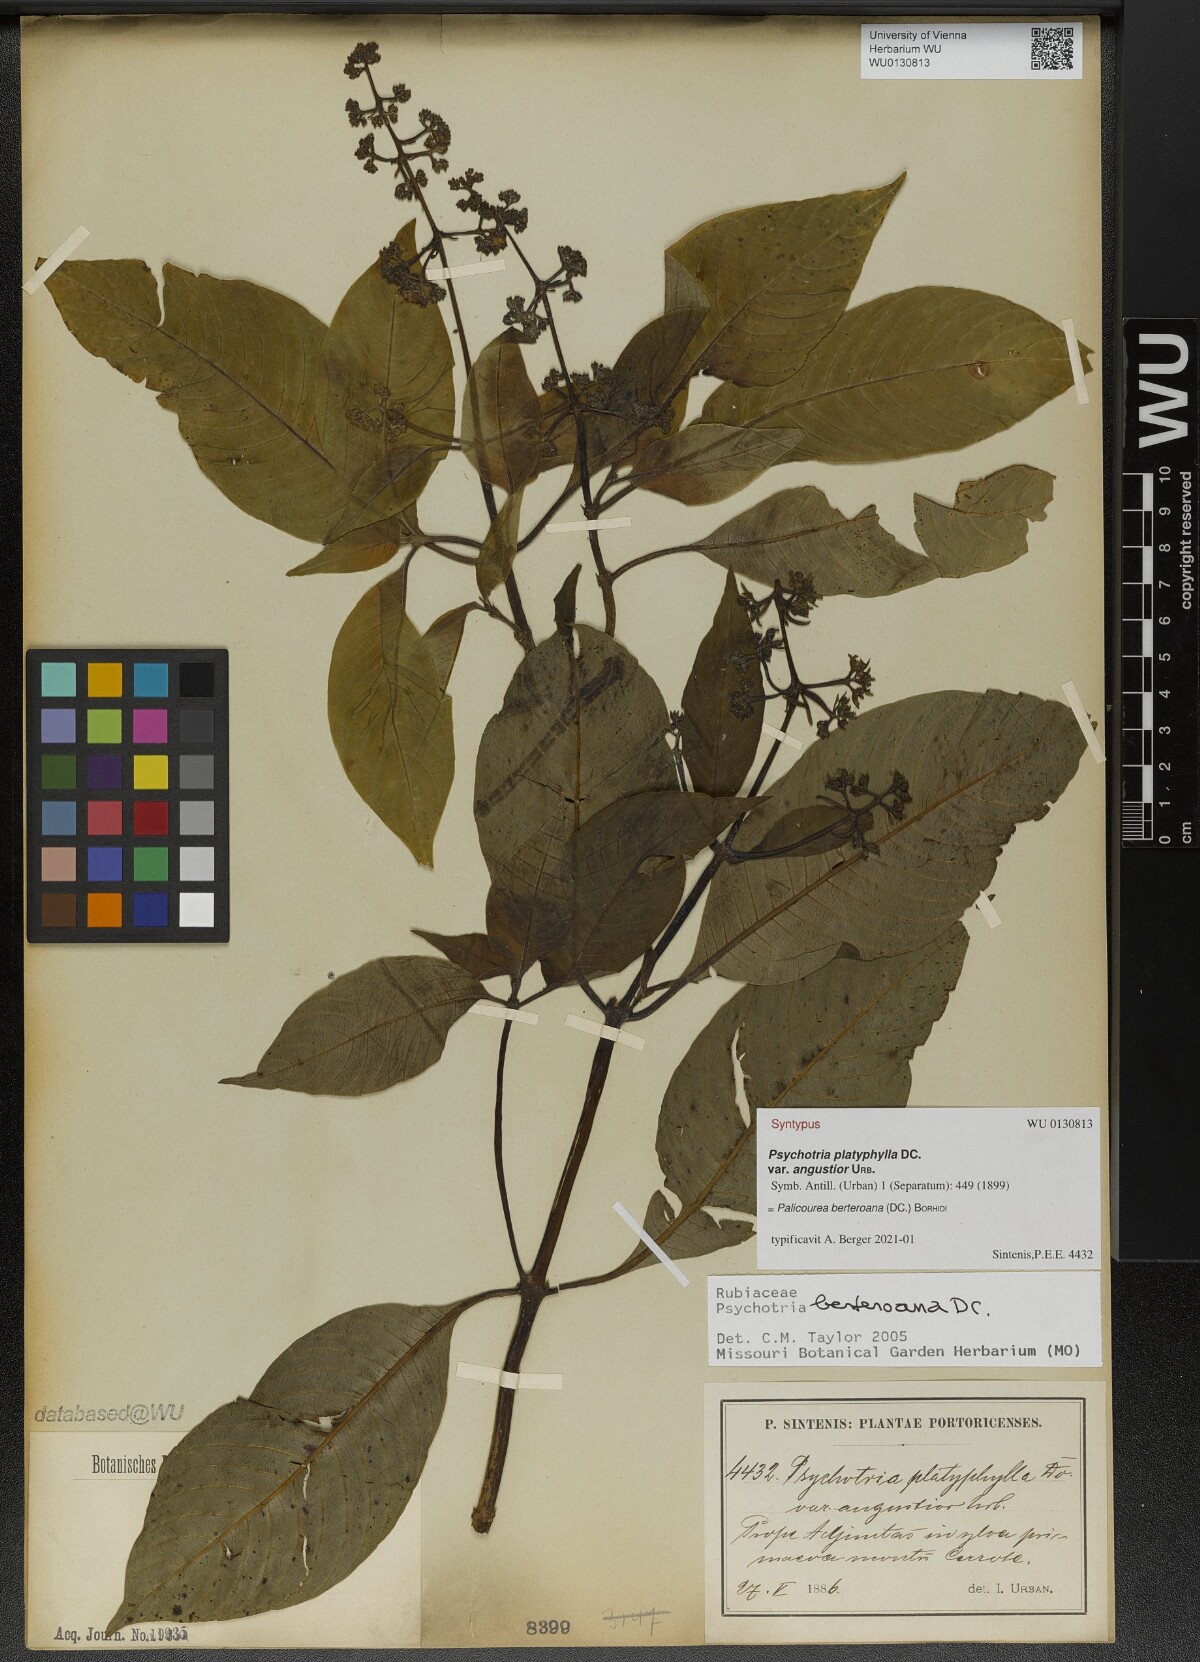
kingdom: Plantae
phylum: Tracheophyta
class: Magnoliopsida
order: Gentianales
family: Rubiaceae
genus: Palicourea
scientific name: Palicourea berteroana
